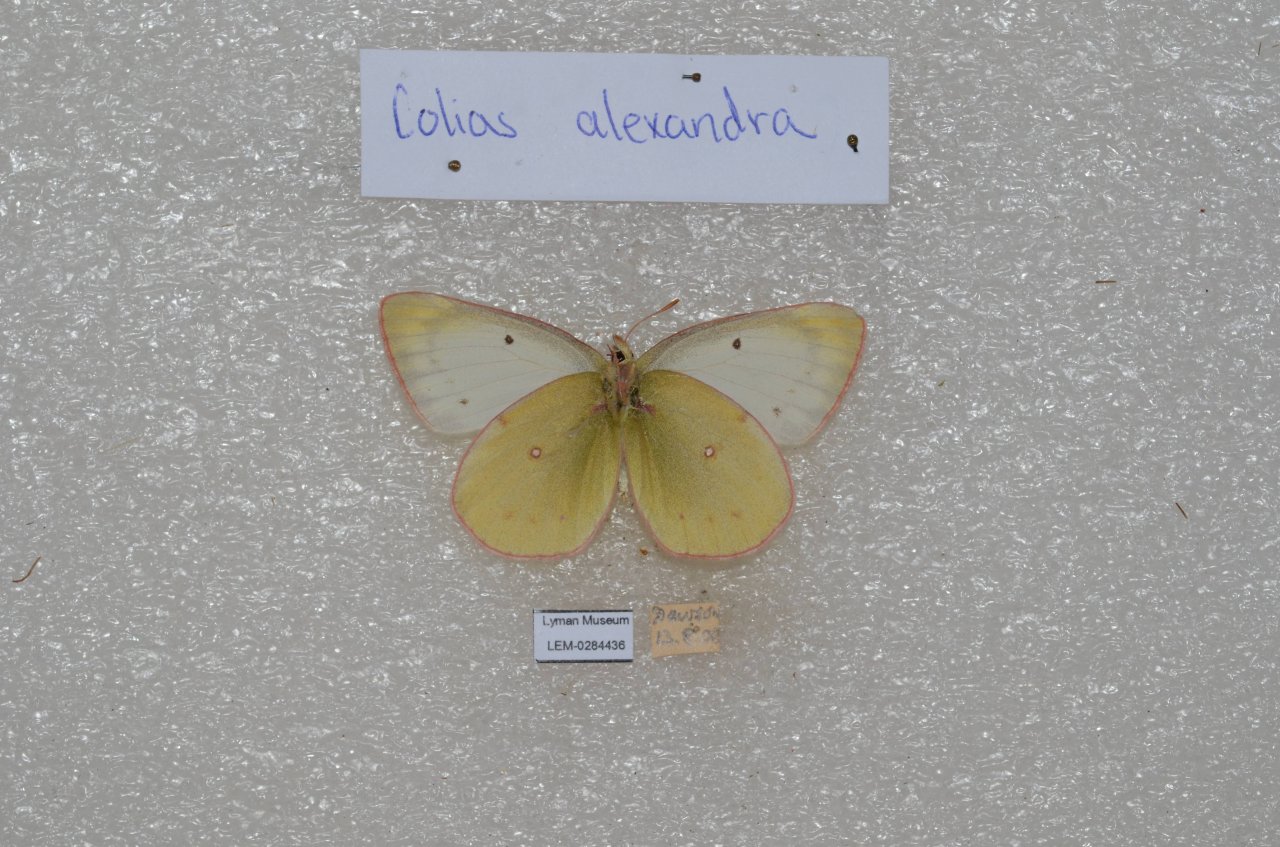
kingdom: Animalia
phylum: Arthropoda
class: Insecta
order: Lepidoptera
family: Pieridae
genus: Colias
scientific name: Colias
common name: Clouded Yellows
